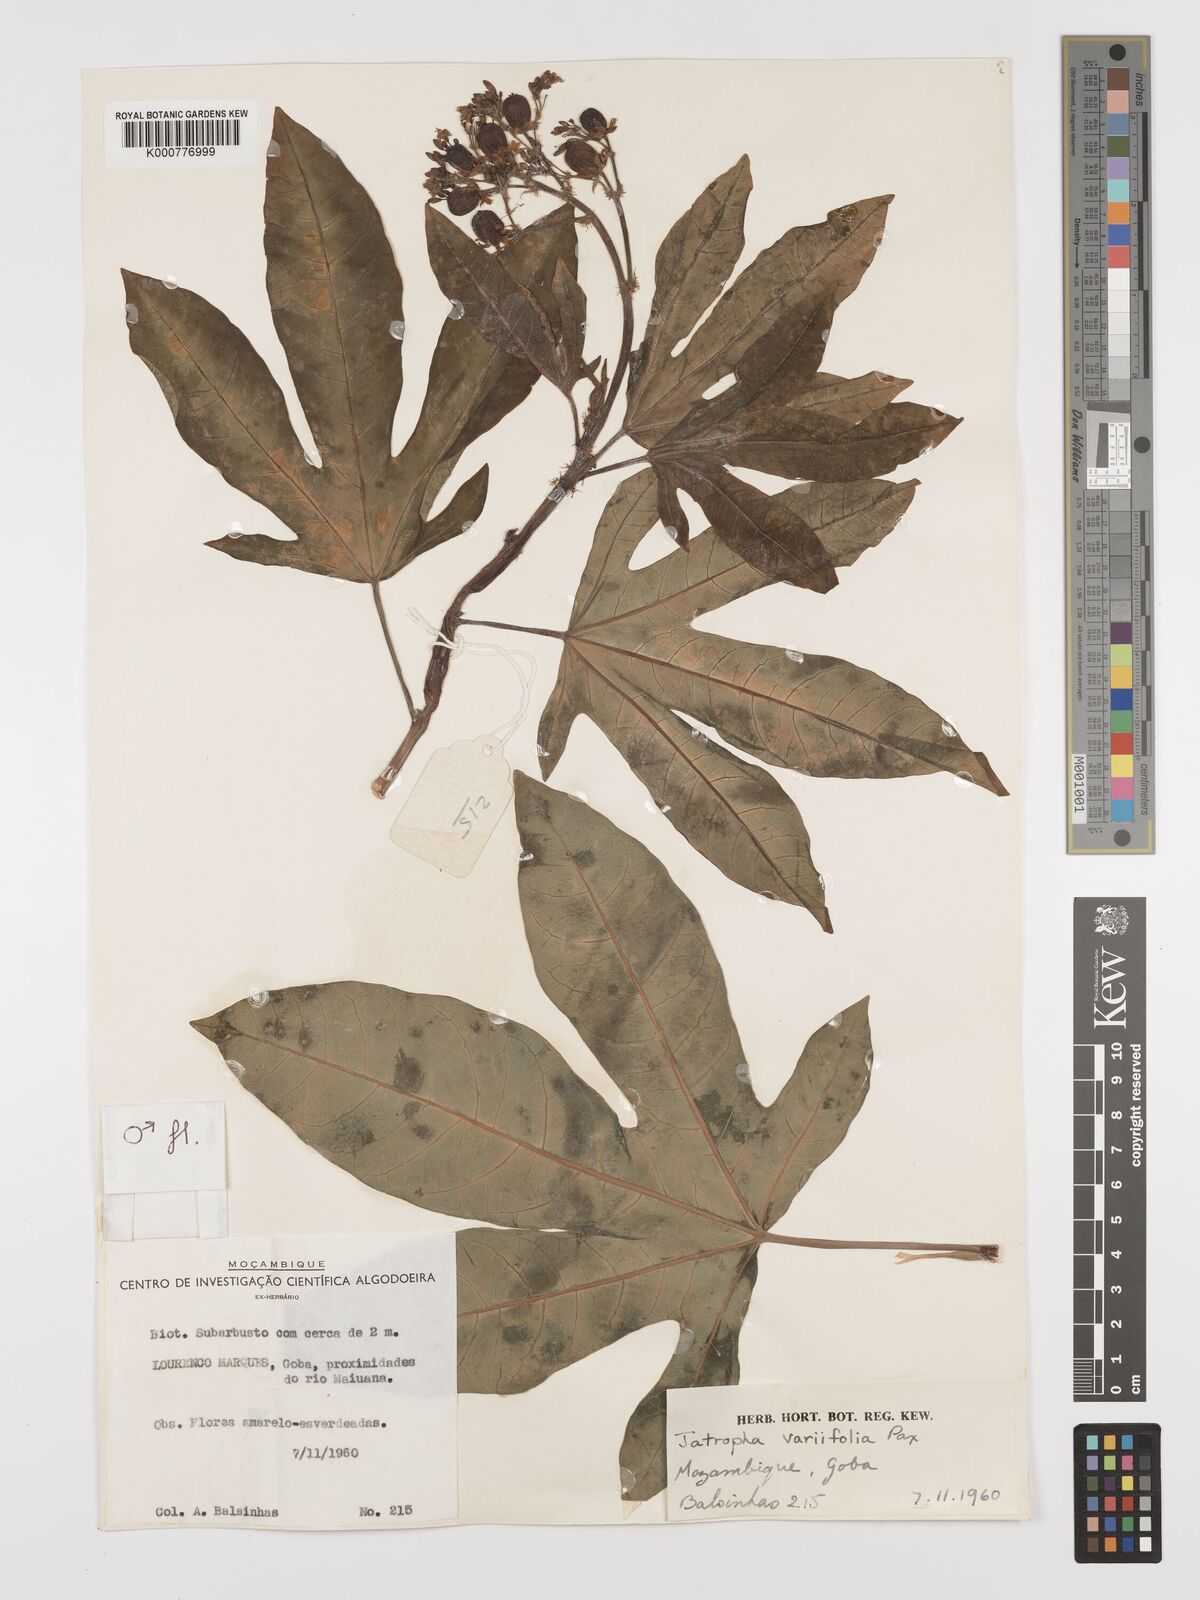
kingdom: Plantae
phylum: Tracheophyta
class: Magnoliopsida
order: Malpighiales
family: Euphorbiaceae
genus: Jatropha
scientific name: Jatropha variifolia
